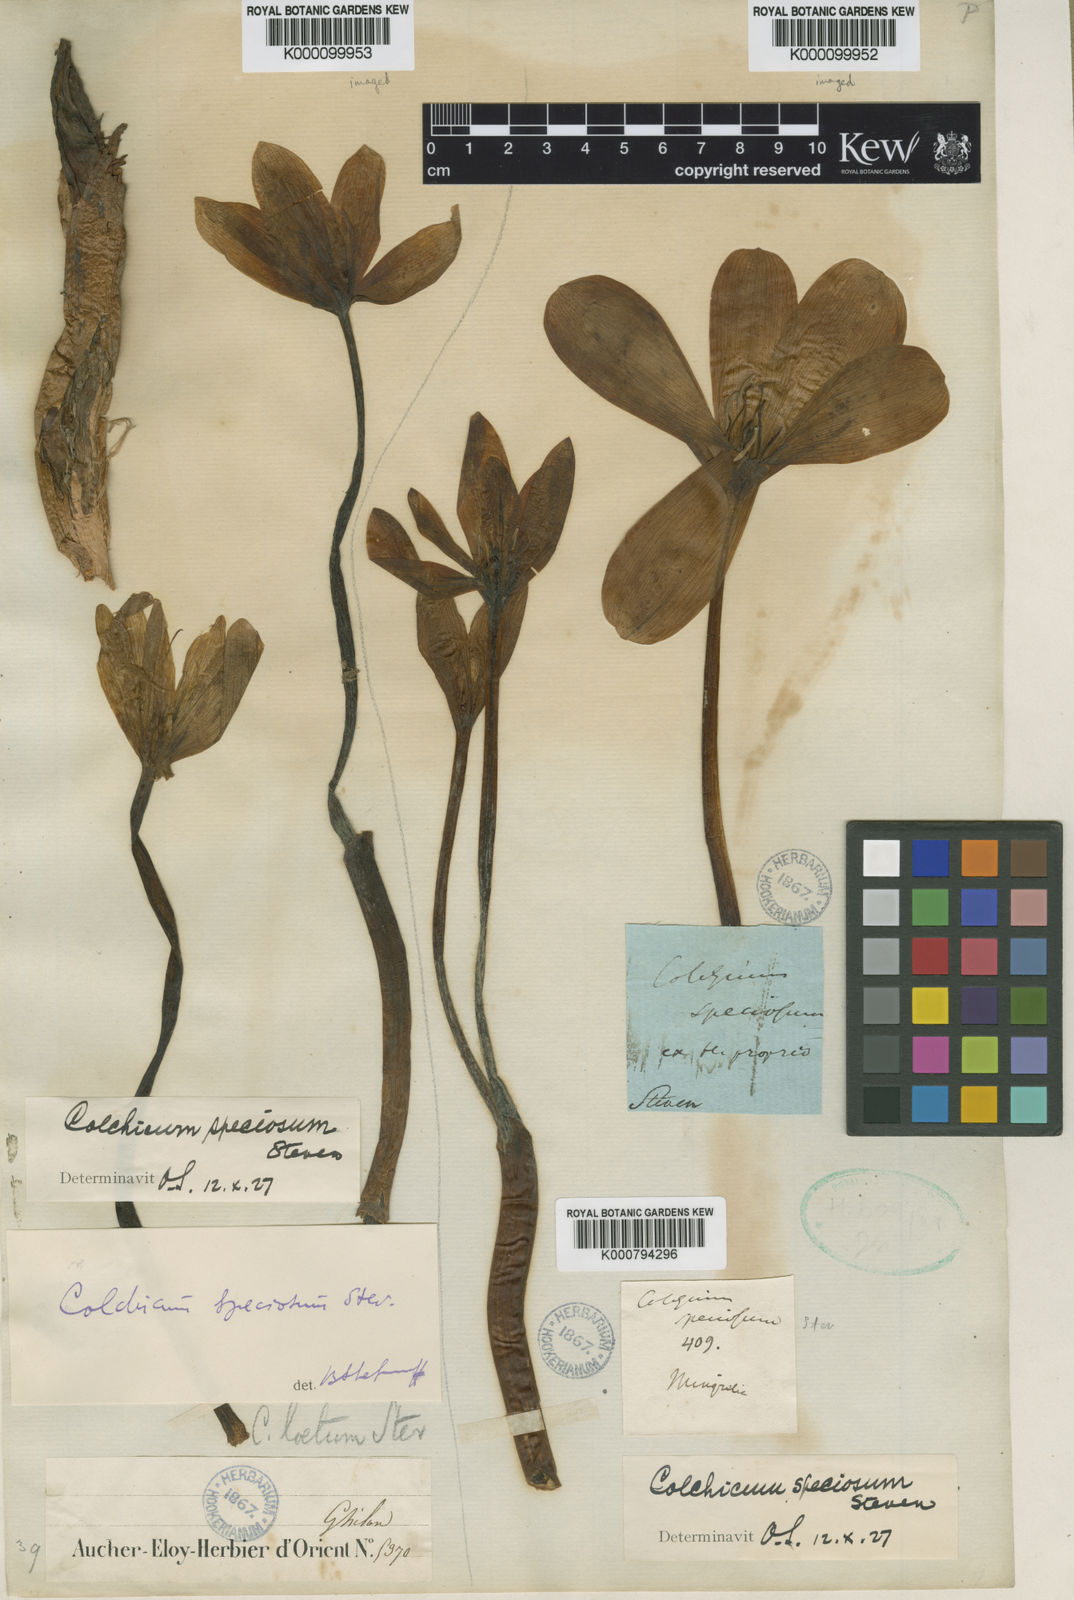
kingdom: Plantae
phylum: Tracheophyta
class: Liliopsida
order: Liliales
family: Colchicaceae
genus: Colchicum
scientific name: Colchicum speciosum
